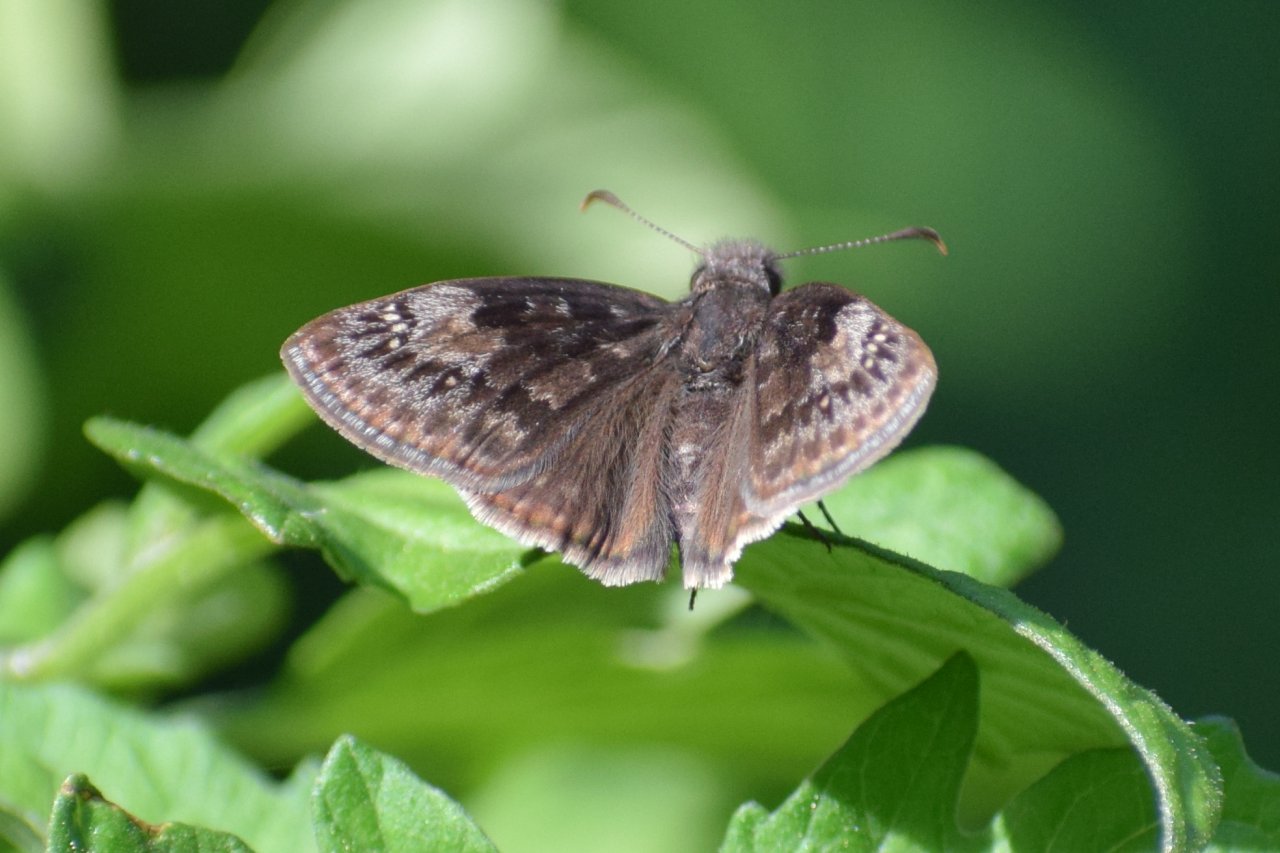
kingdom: Animalia
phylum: Arthropoda
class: Insecta
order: Lepidoptera
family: Hesperiidae
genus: Gesta
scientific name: Gesta
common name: Wild Indigo Duskywing
